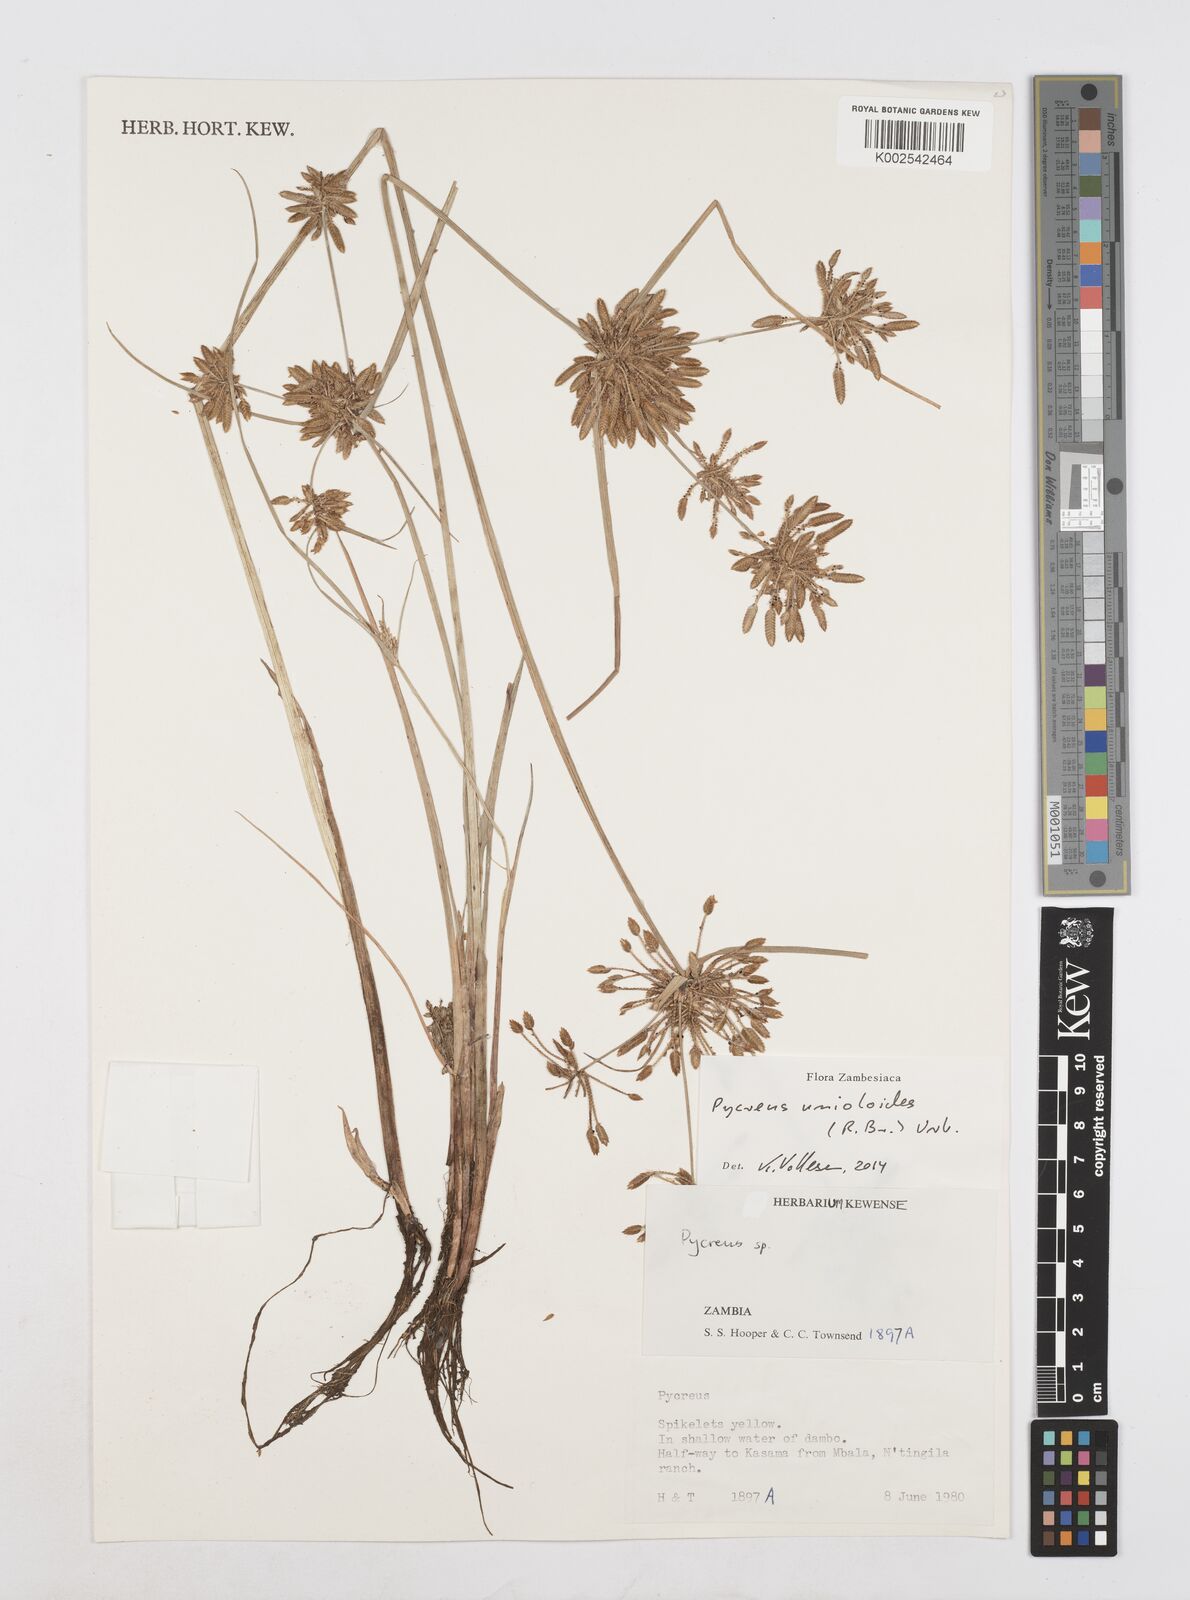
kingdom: Plantae
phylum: Tracheophyta
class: Liliopsida
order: Poales
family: Cyperaceae
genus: Cyperus
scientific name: Cyperus unioloides
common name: Uniola flatsedge
